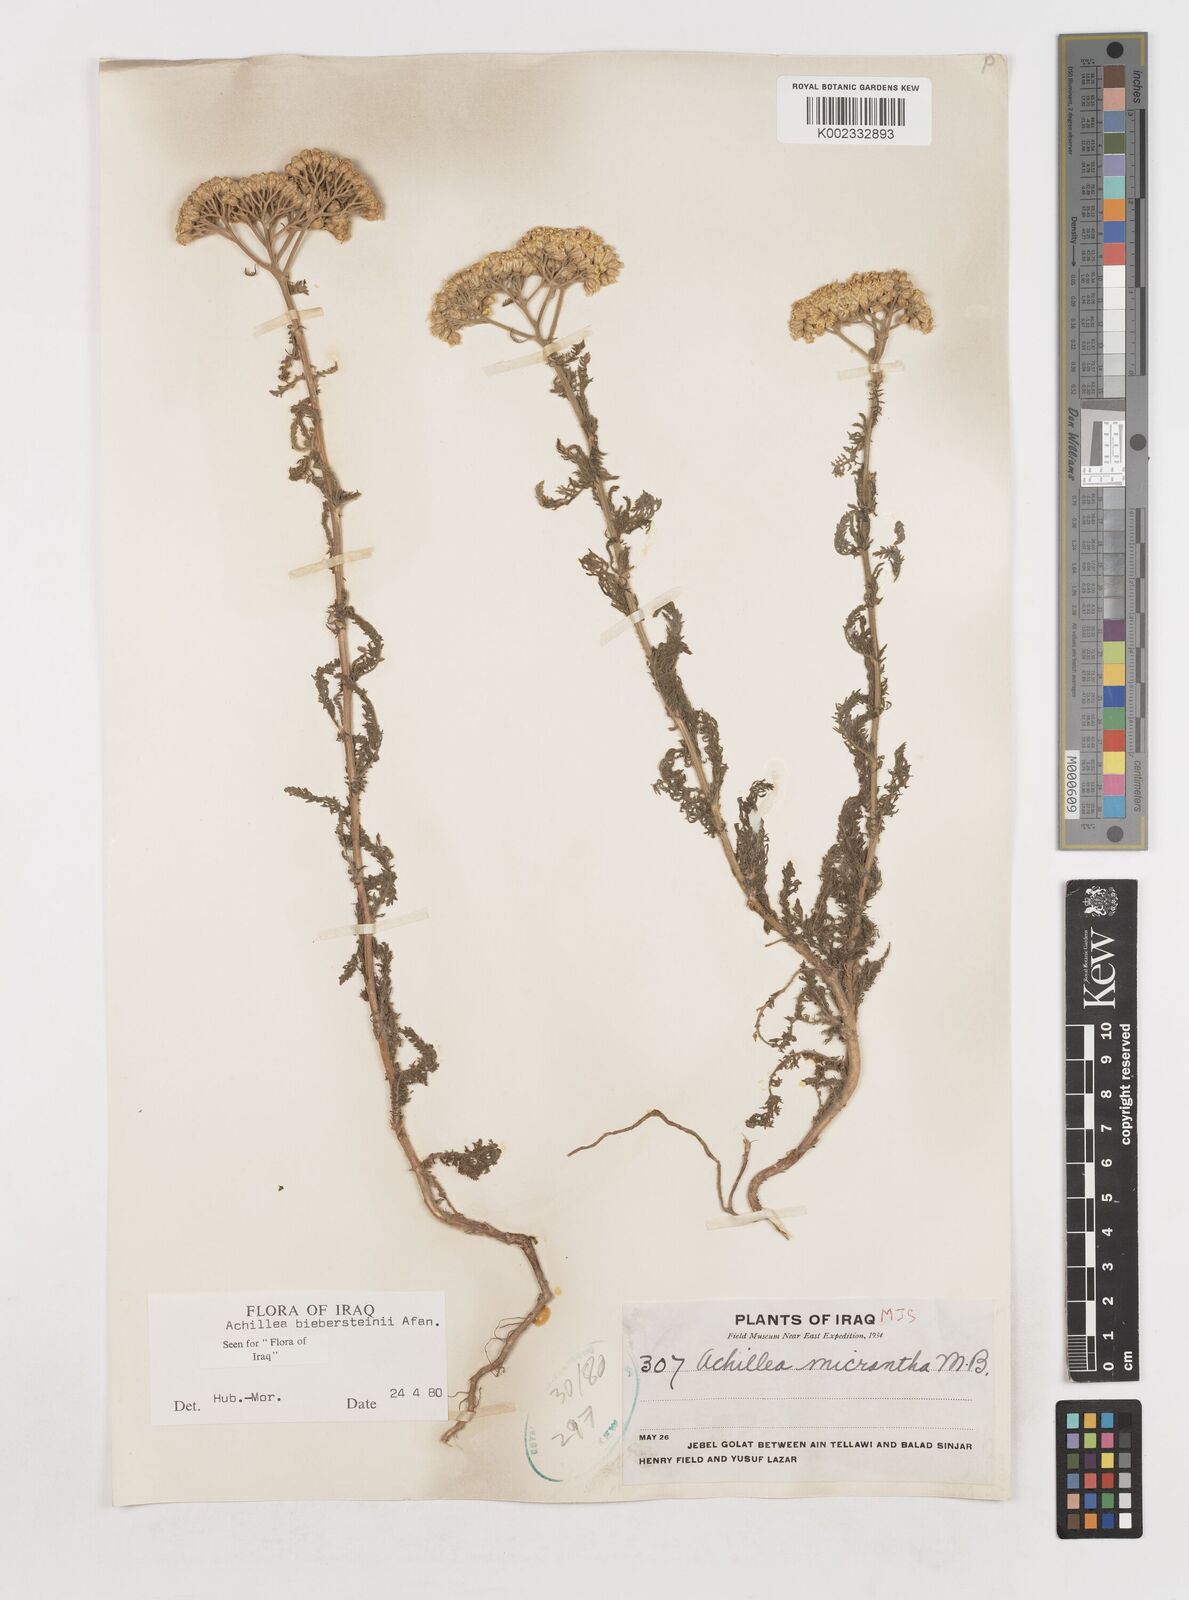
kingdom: Plantae
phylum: Tracheophyta
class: Magnoliopsida
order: Asterales
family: Asteraceae
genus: Achillea
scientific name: Achillea arabica
